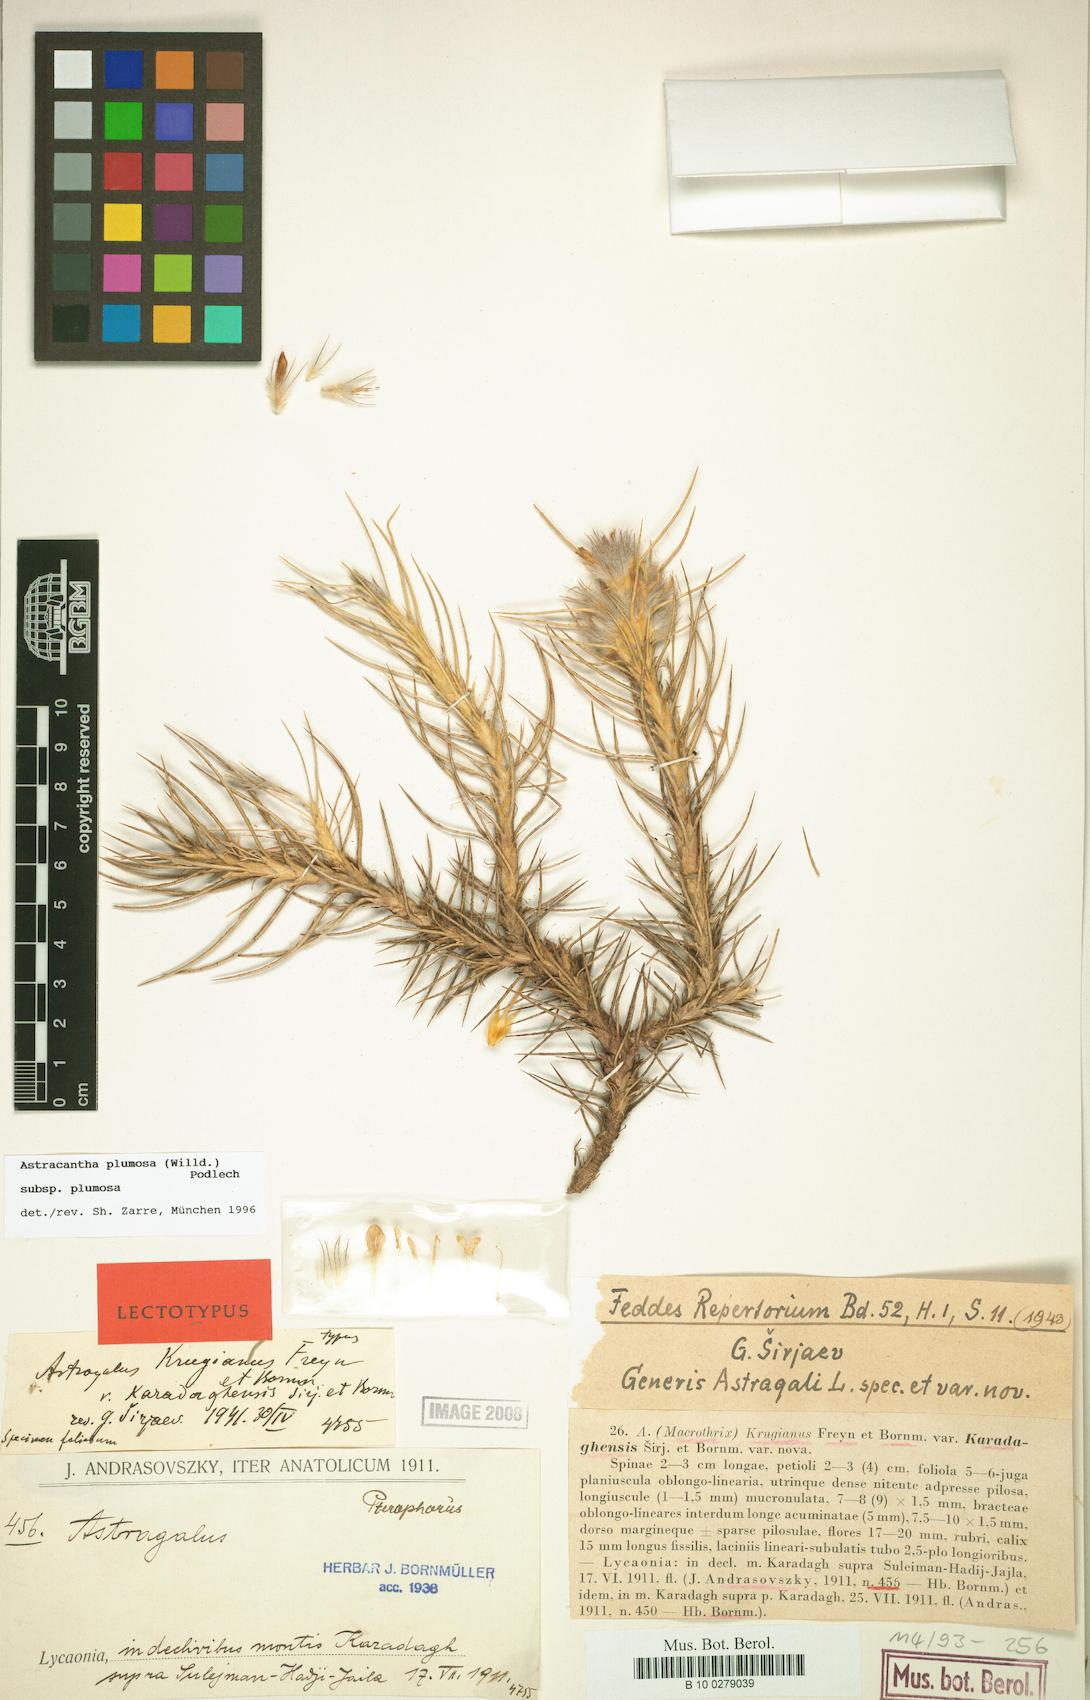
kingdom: Plantae
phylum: Tracheophyta
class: Magnoliopsida
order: Fabales
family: Fabaceae
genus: Astragalus
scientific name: Astragalus plumosus
